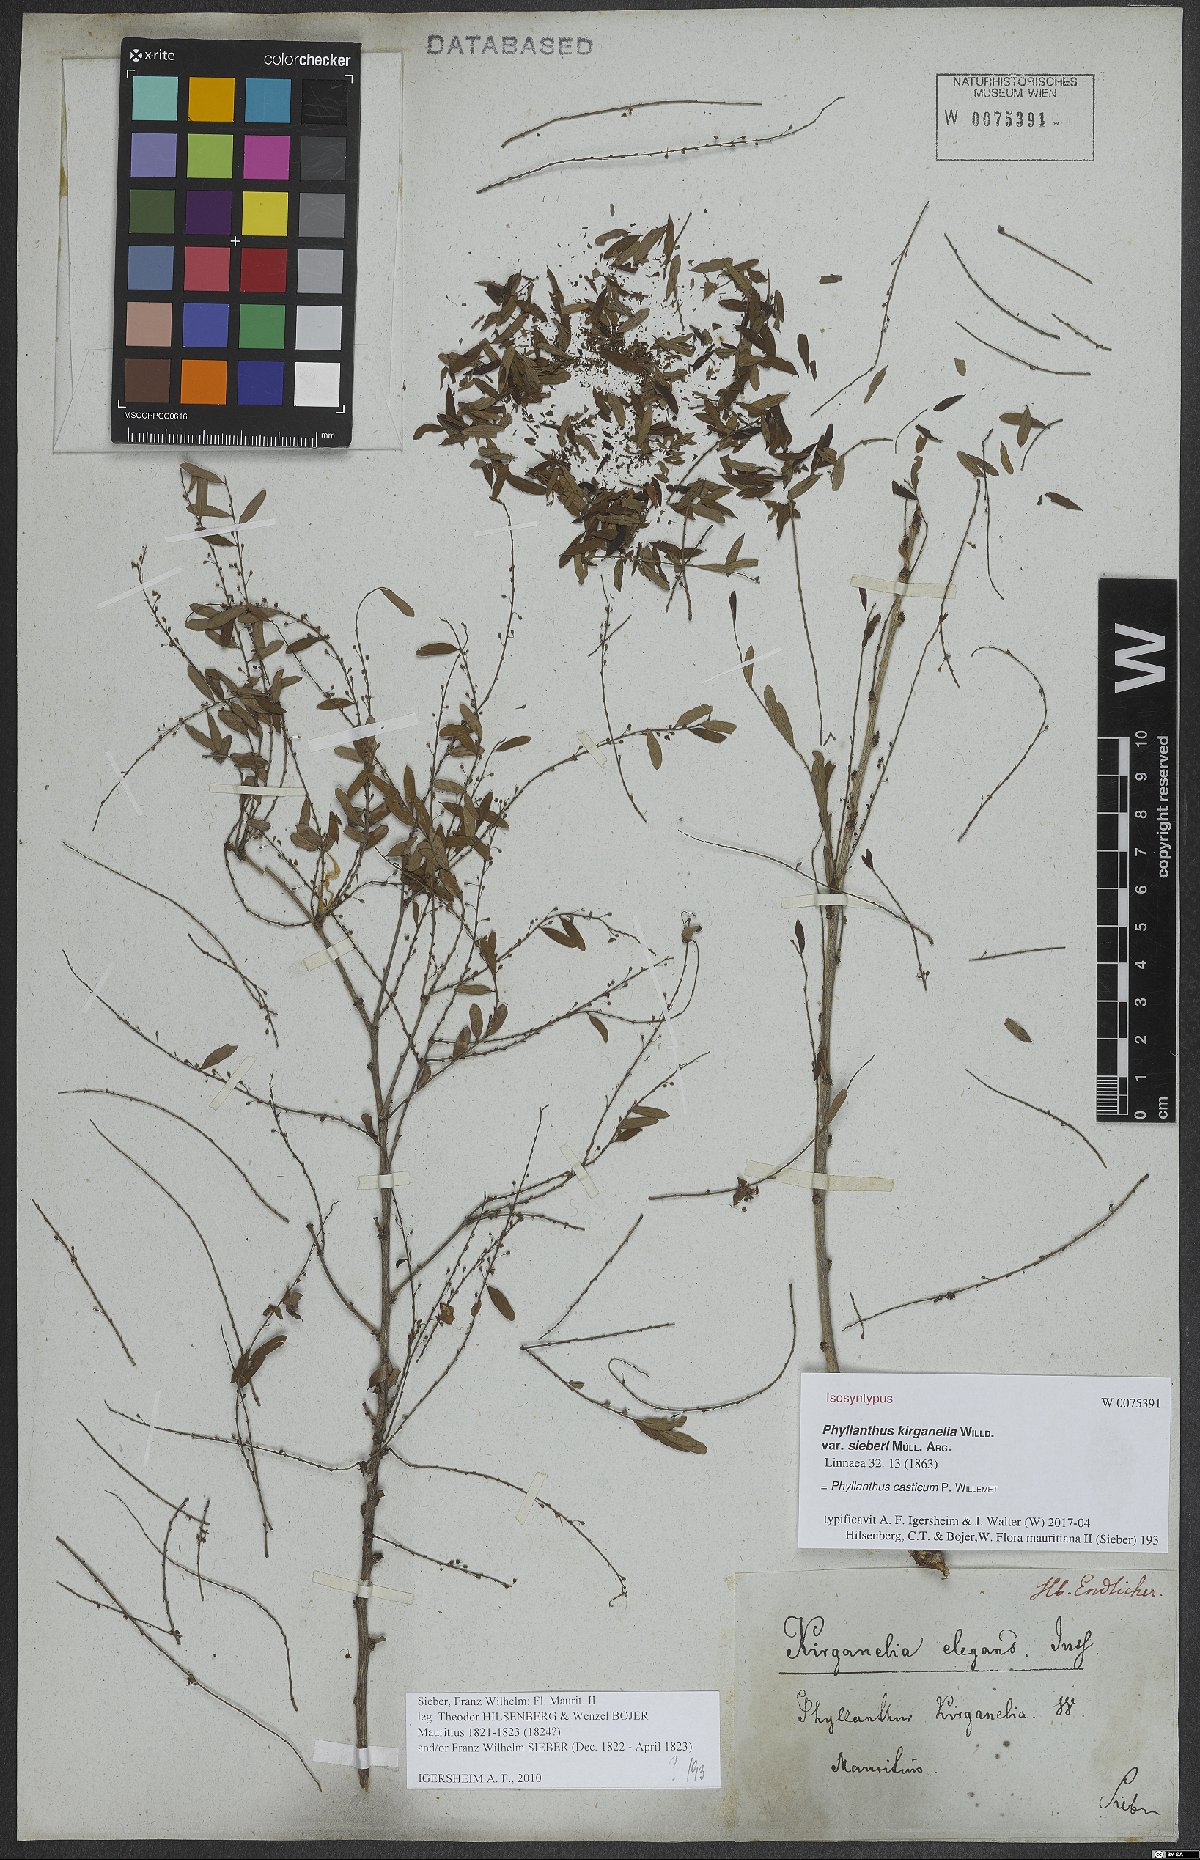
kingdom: Plantae
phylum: Tracheophyta
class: Magnoliopsida
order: Malpighiales
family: Phyllanthaceae
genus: Phyllanthus
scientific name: Phyllanthus casticum
